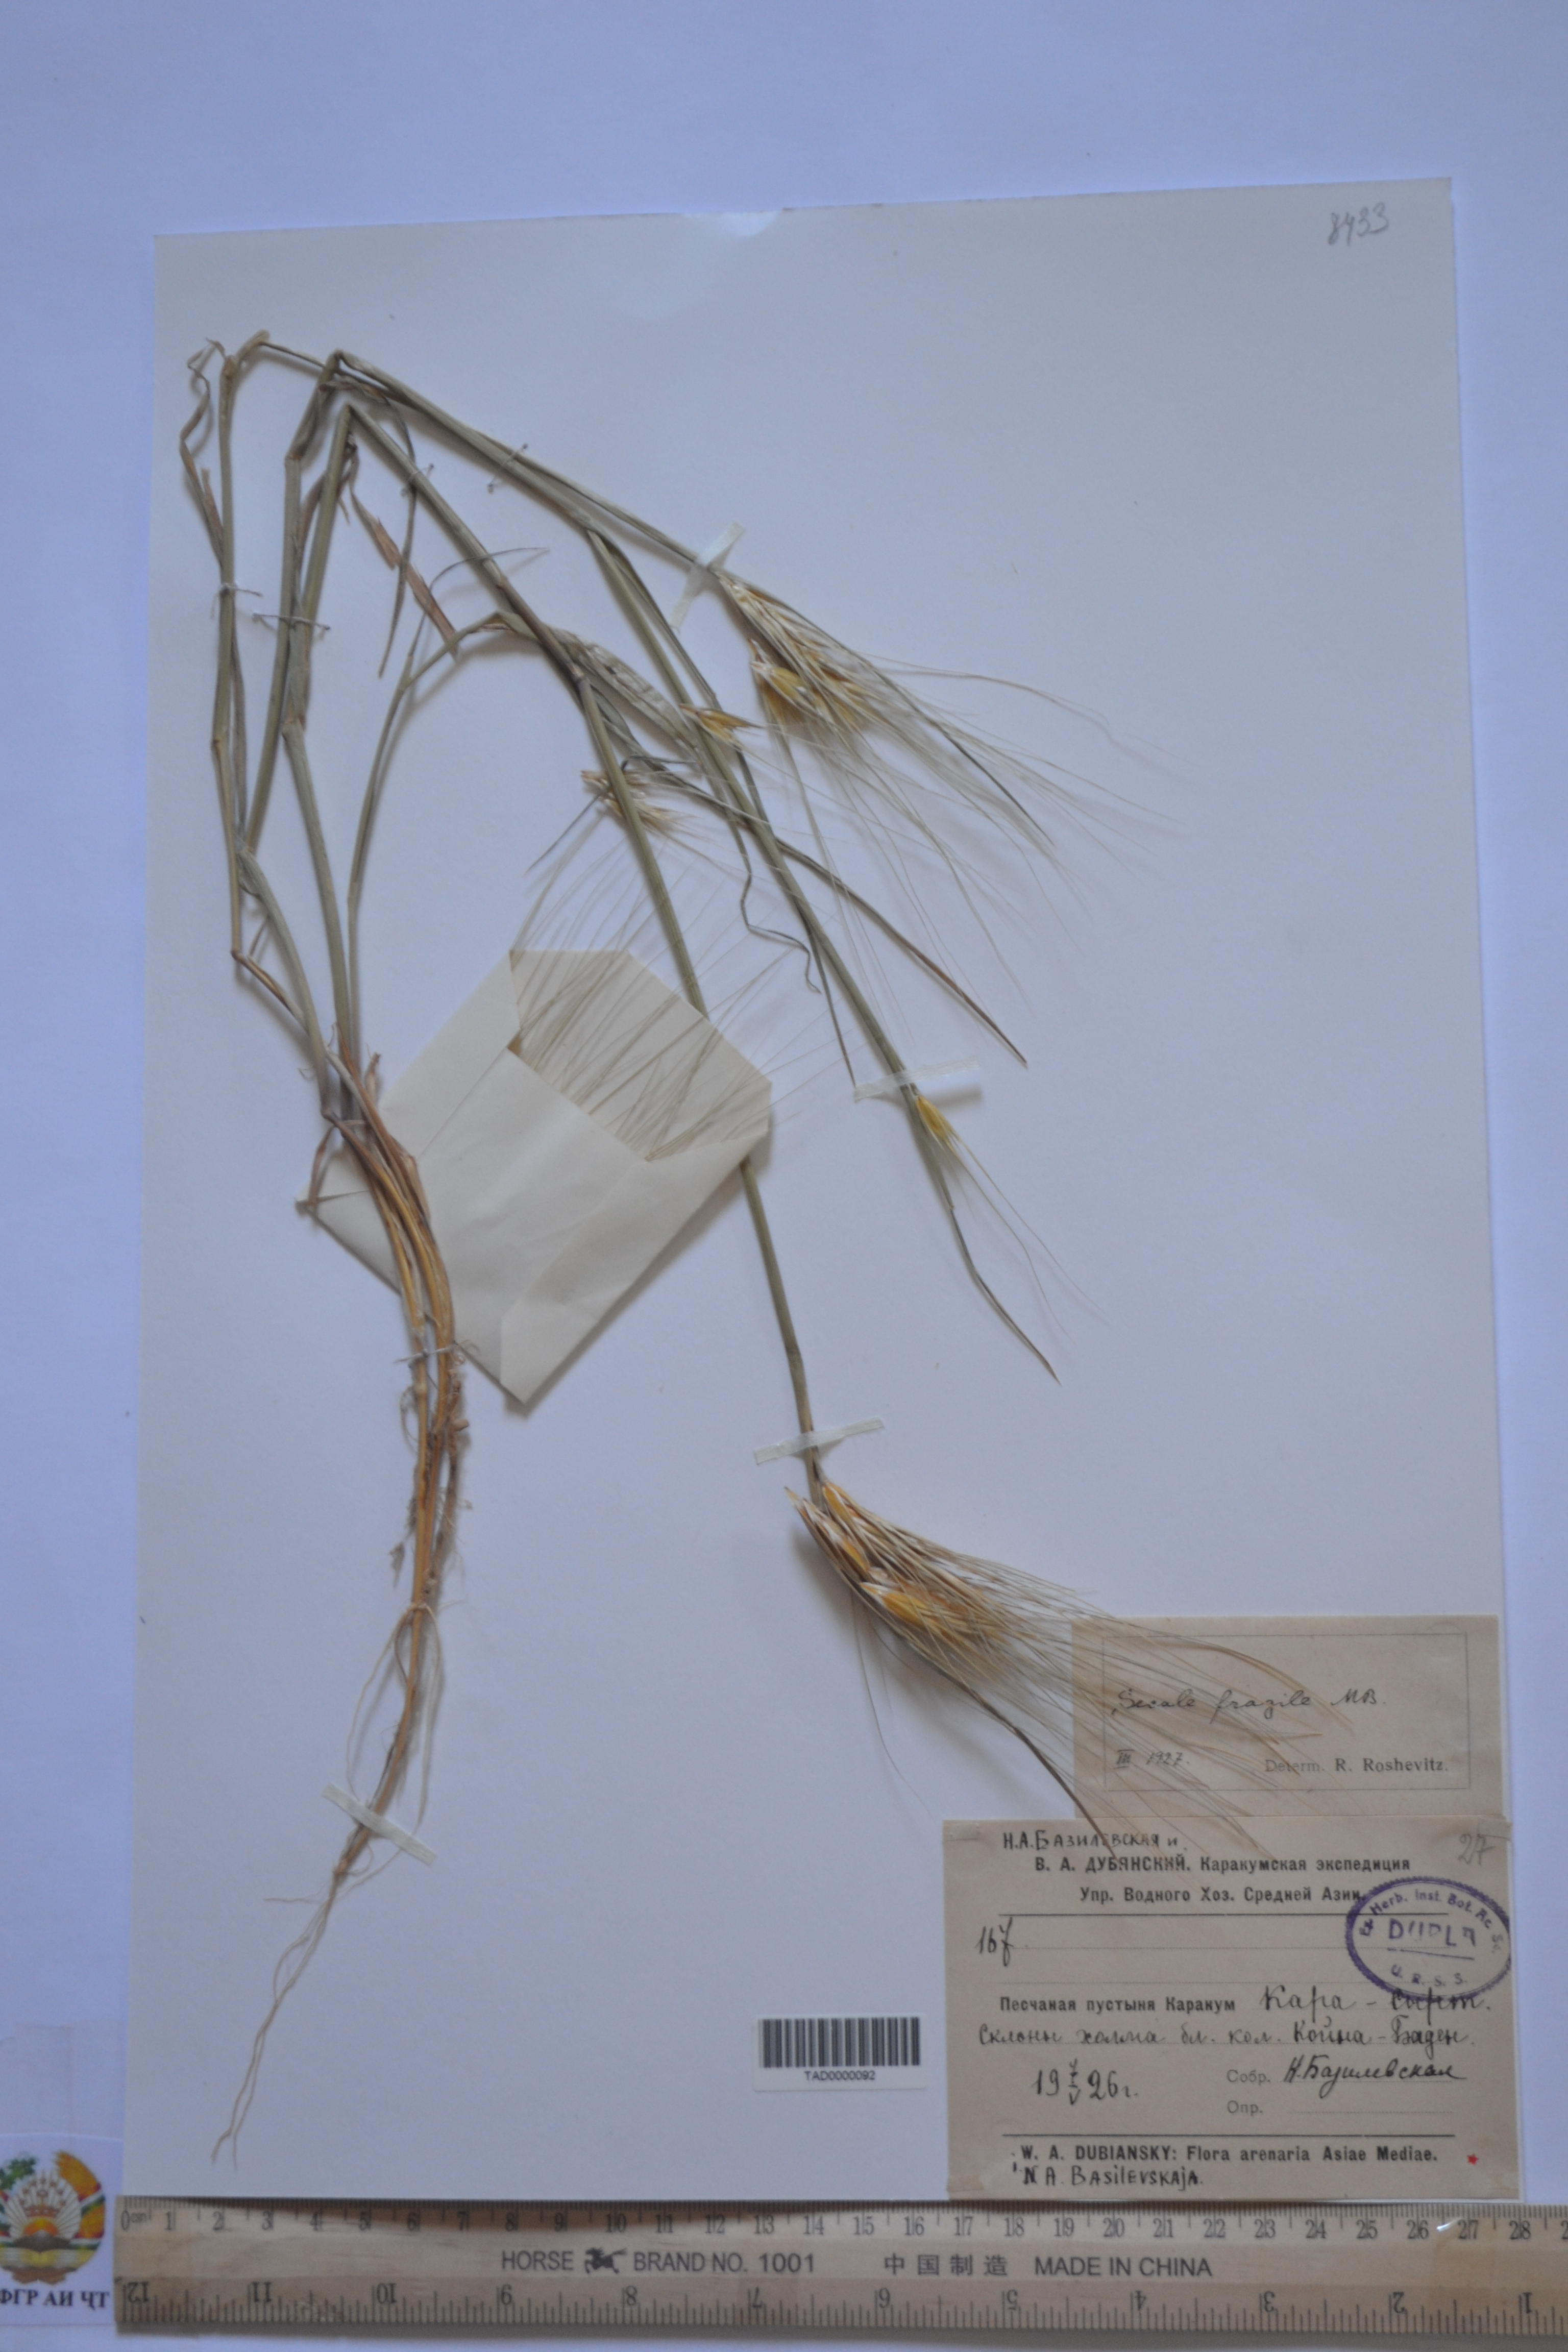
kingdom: Plantae
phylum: Tracheophyta
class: Liliopsida
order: Poales
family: Poaceae
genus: Secale
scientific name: Secale sylvestre
